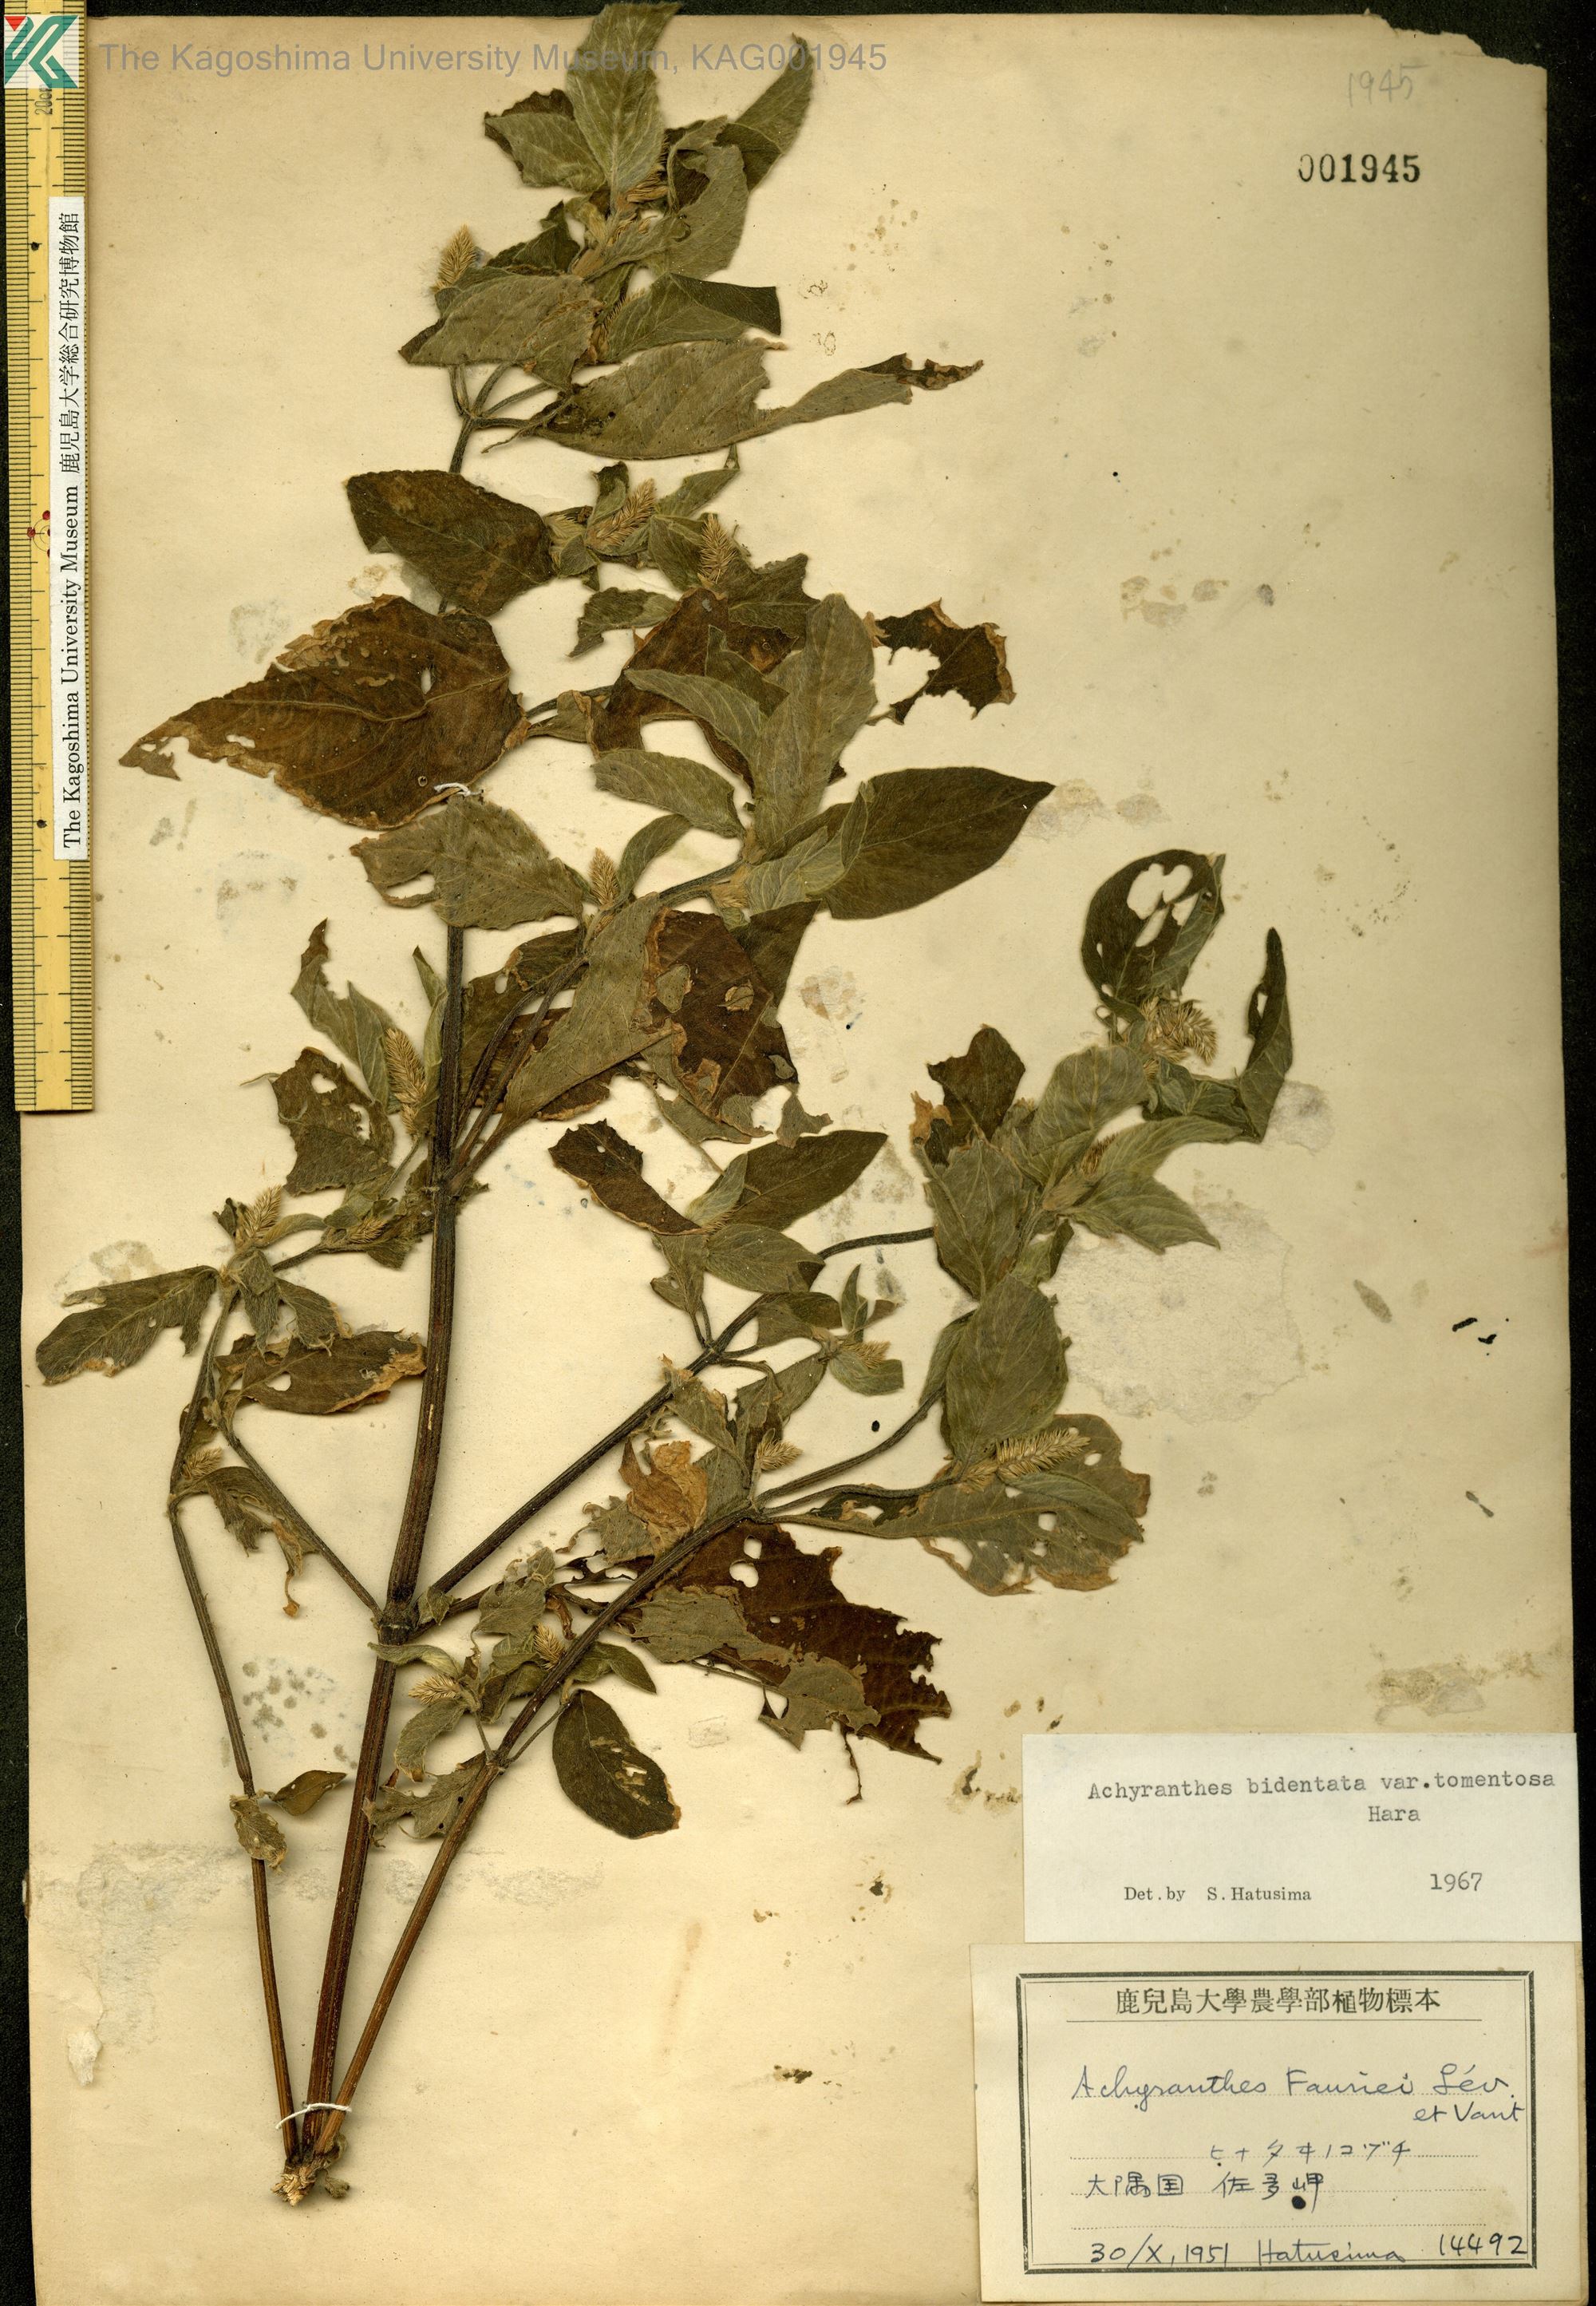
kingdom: Plantae
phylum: Tracheophyta
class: Magnoliopsida
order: Caryophyllales
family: Amaranthaceae
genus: Achyranthes
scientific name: Achyranthes bidentata
